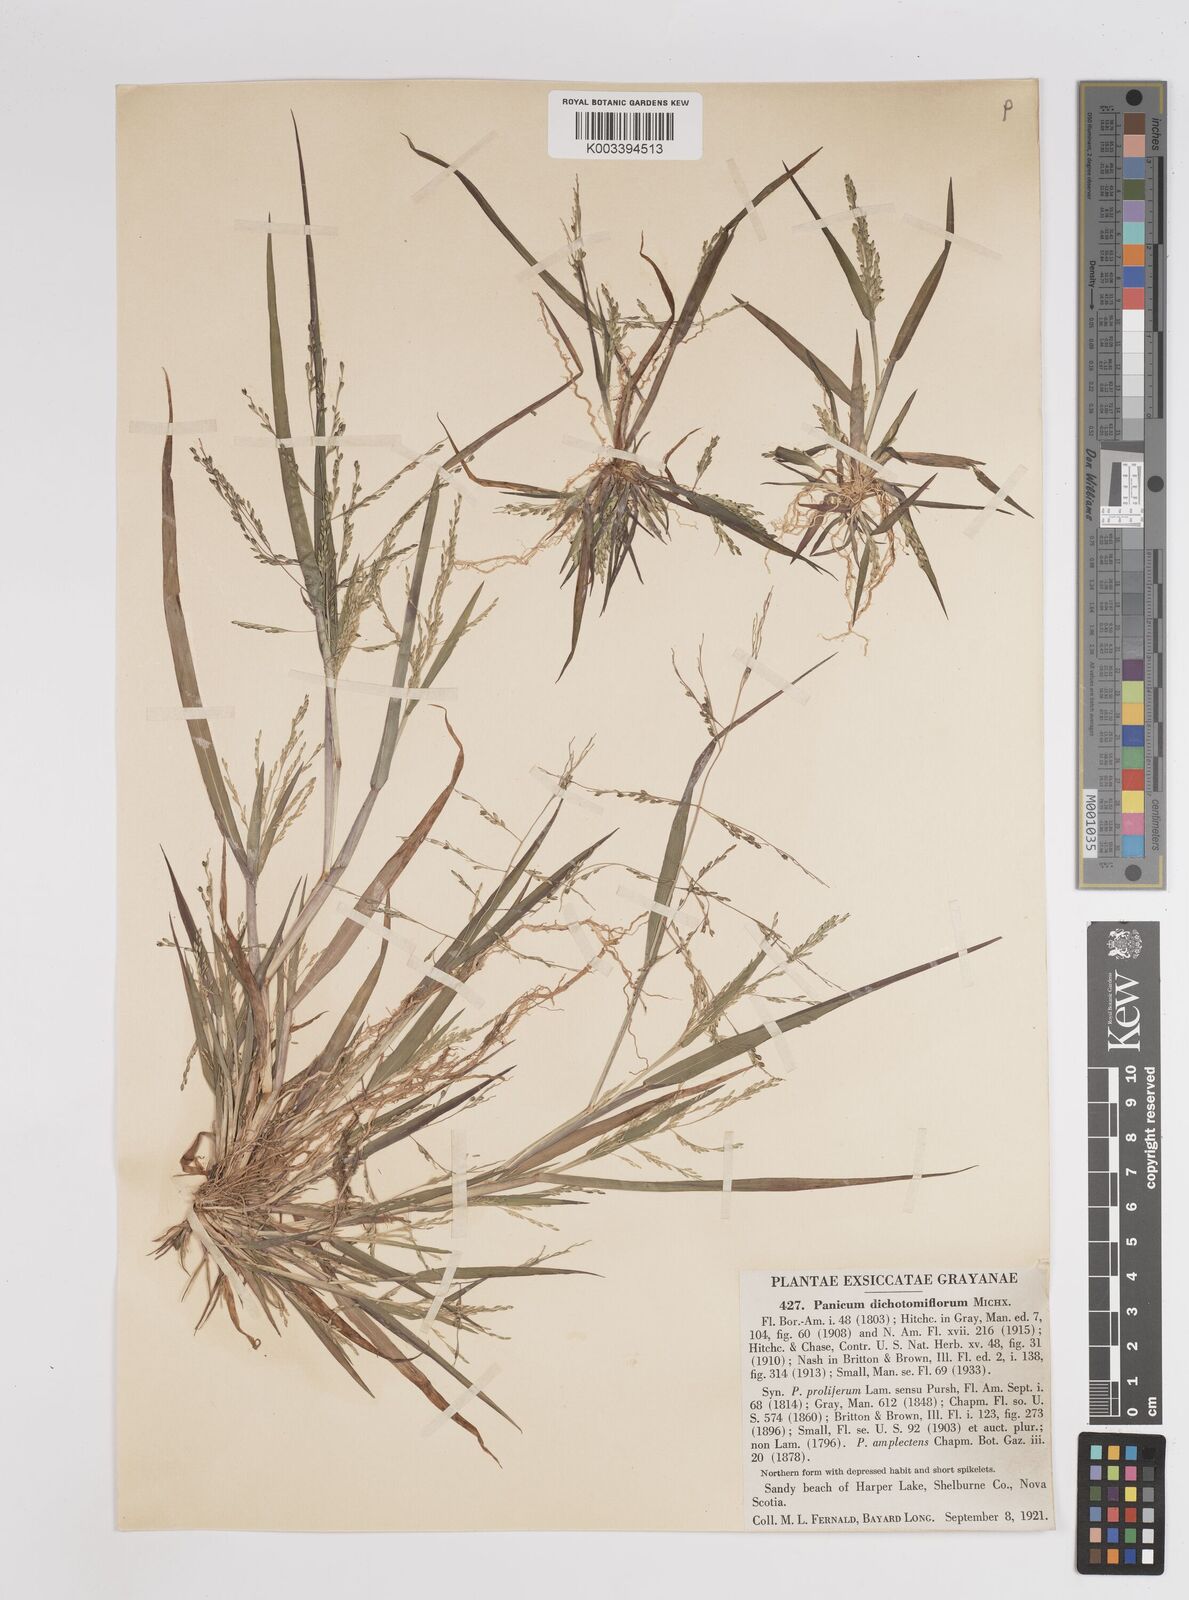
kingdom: Plantae
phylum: Tracheophyta
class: Liliopsida
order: Poales
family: Poaceae
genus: Panicum
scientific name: Panicum dichotomiflorum
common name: Autumn millet
